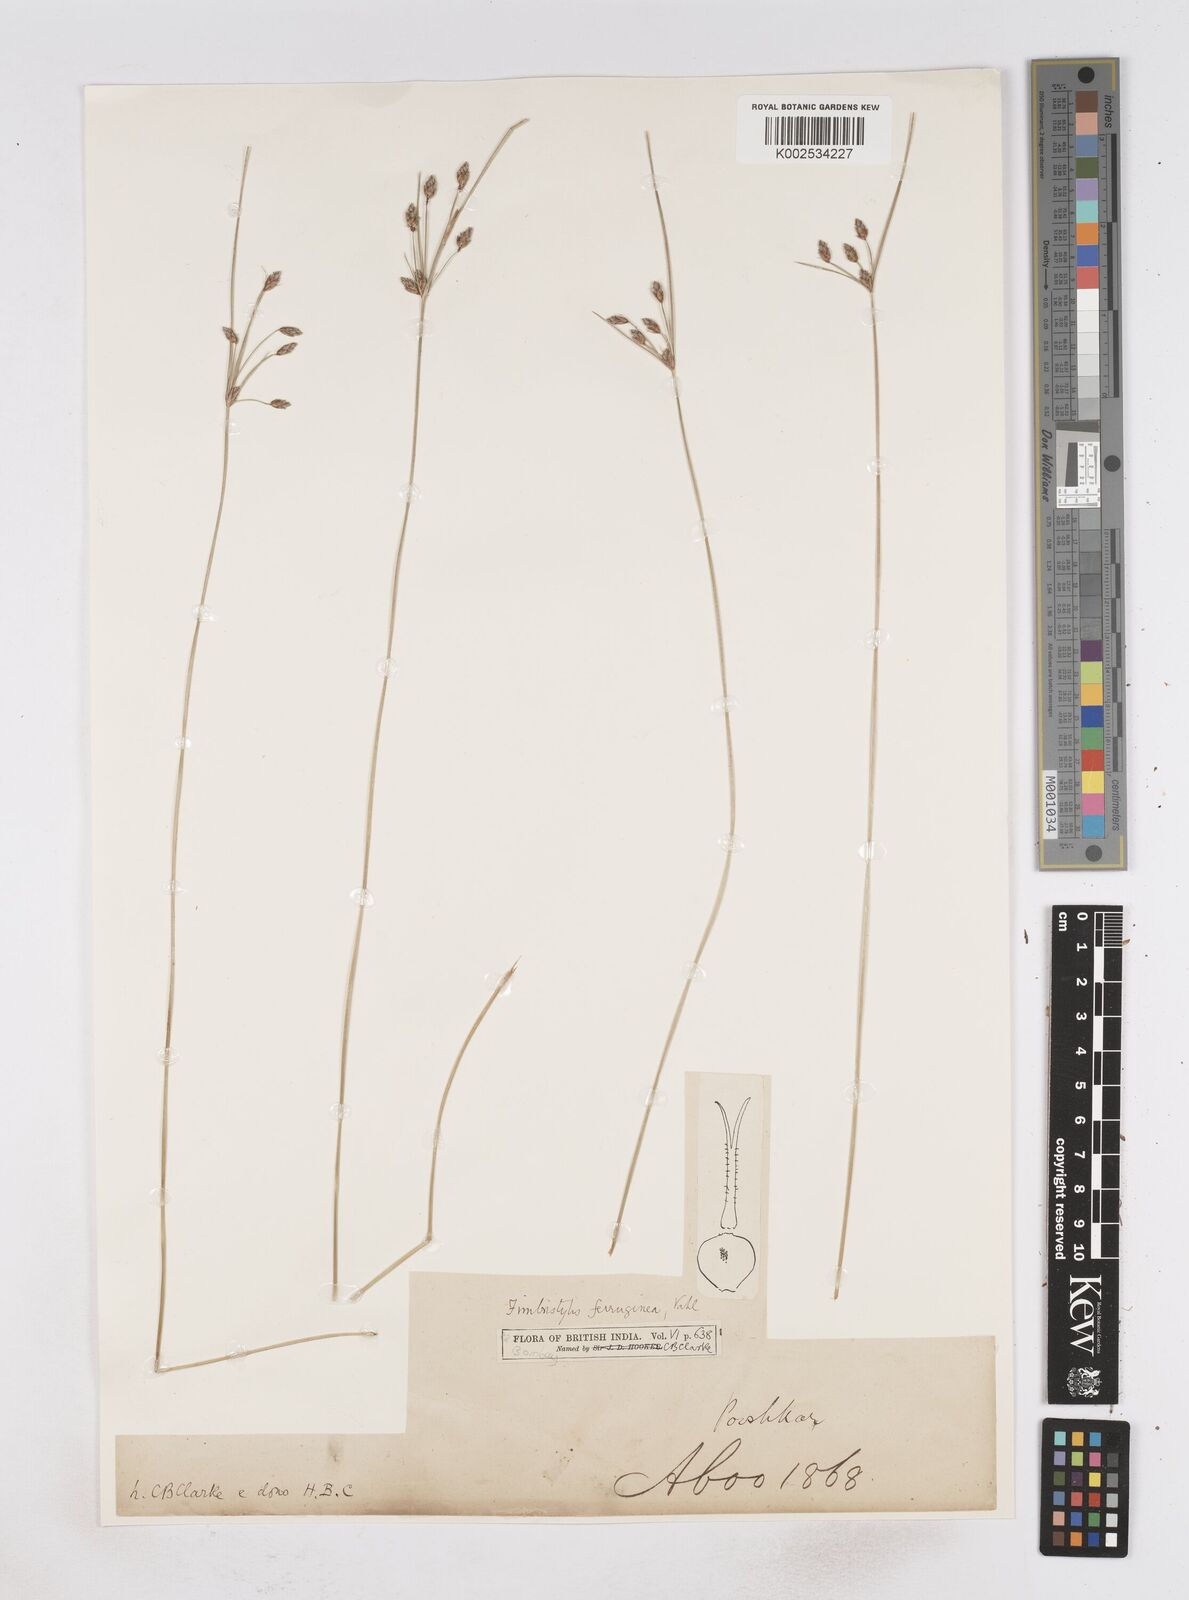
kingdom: Plantae
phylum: Tracheophyta
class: Liliopsida
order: Poales
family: Cyperaceae
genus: Fimbristylis
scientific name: Fimbristylis ferruginea
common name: West indian fimbry
